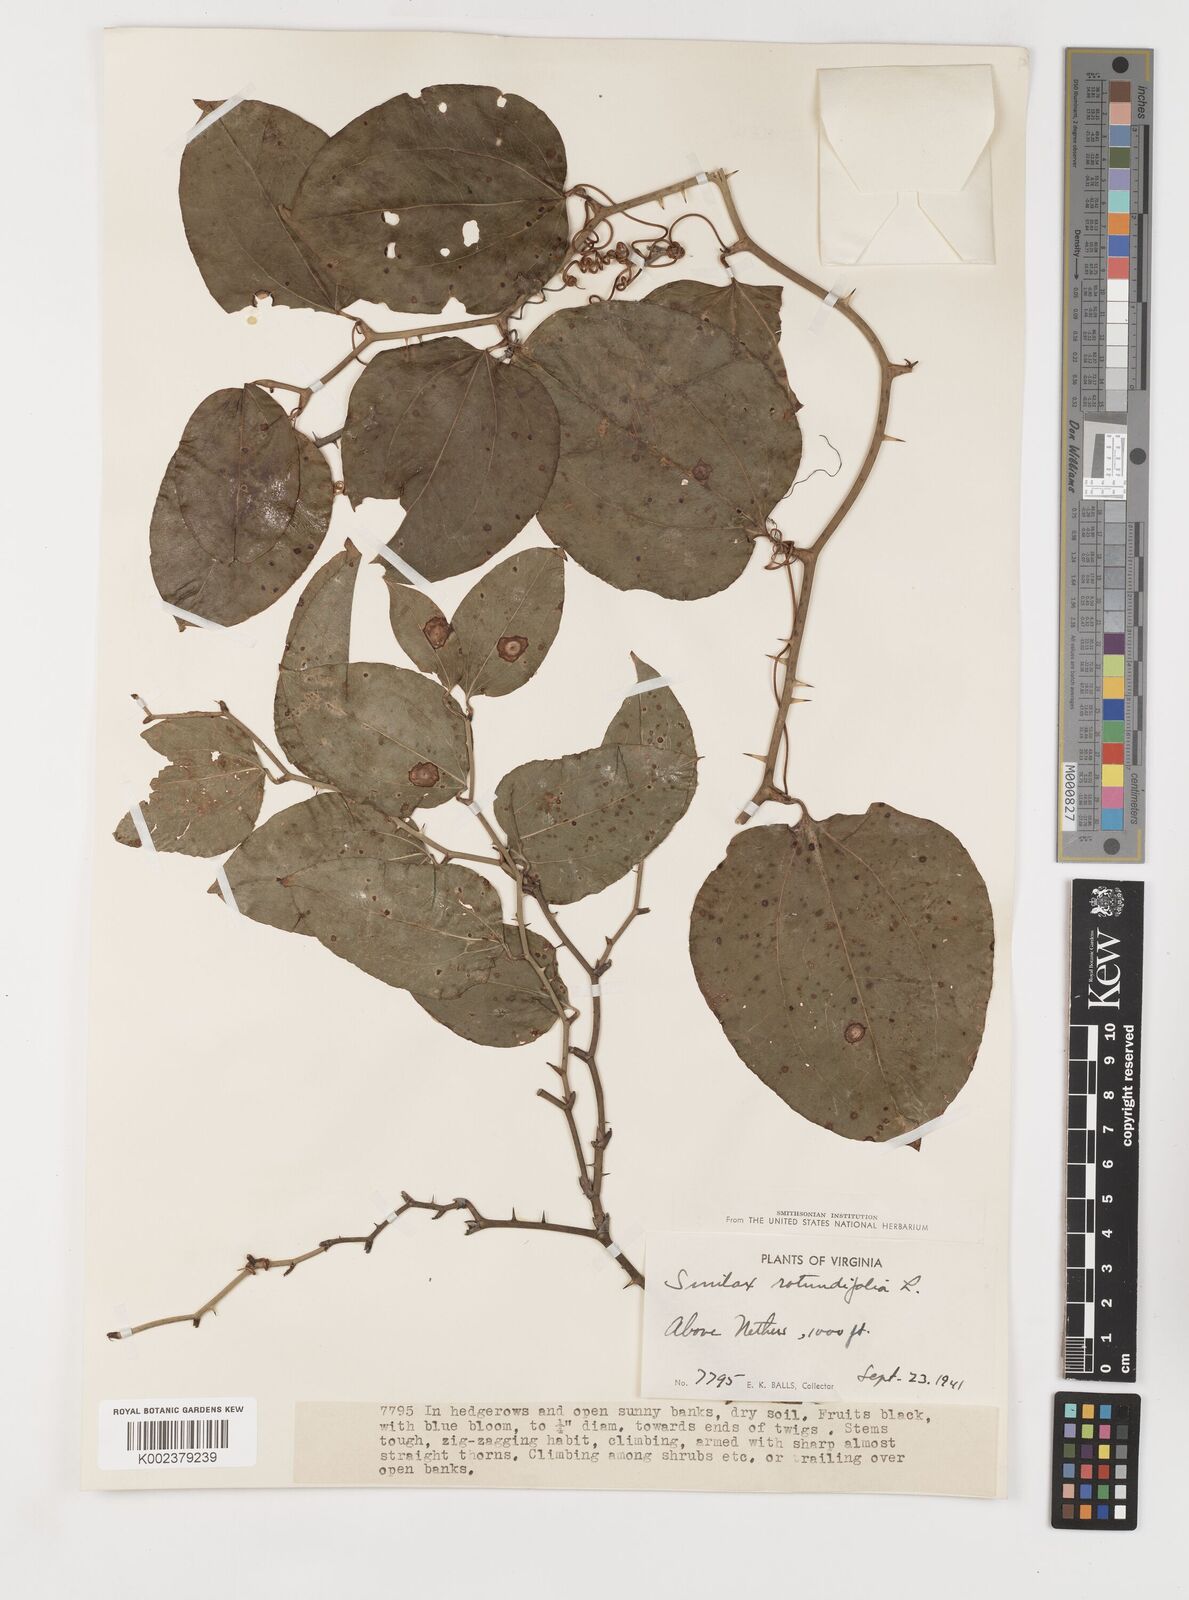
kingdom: Plantae
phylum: Tracheophyta
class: Liliopsida
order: Liliales
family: Smilacaceae
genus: Smilax
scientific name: Smilax rotundifolia
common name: Bullbriar
